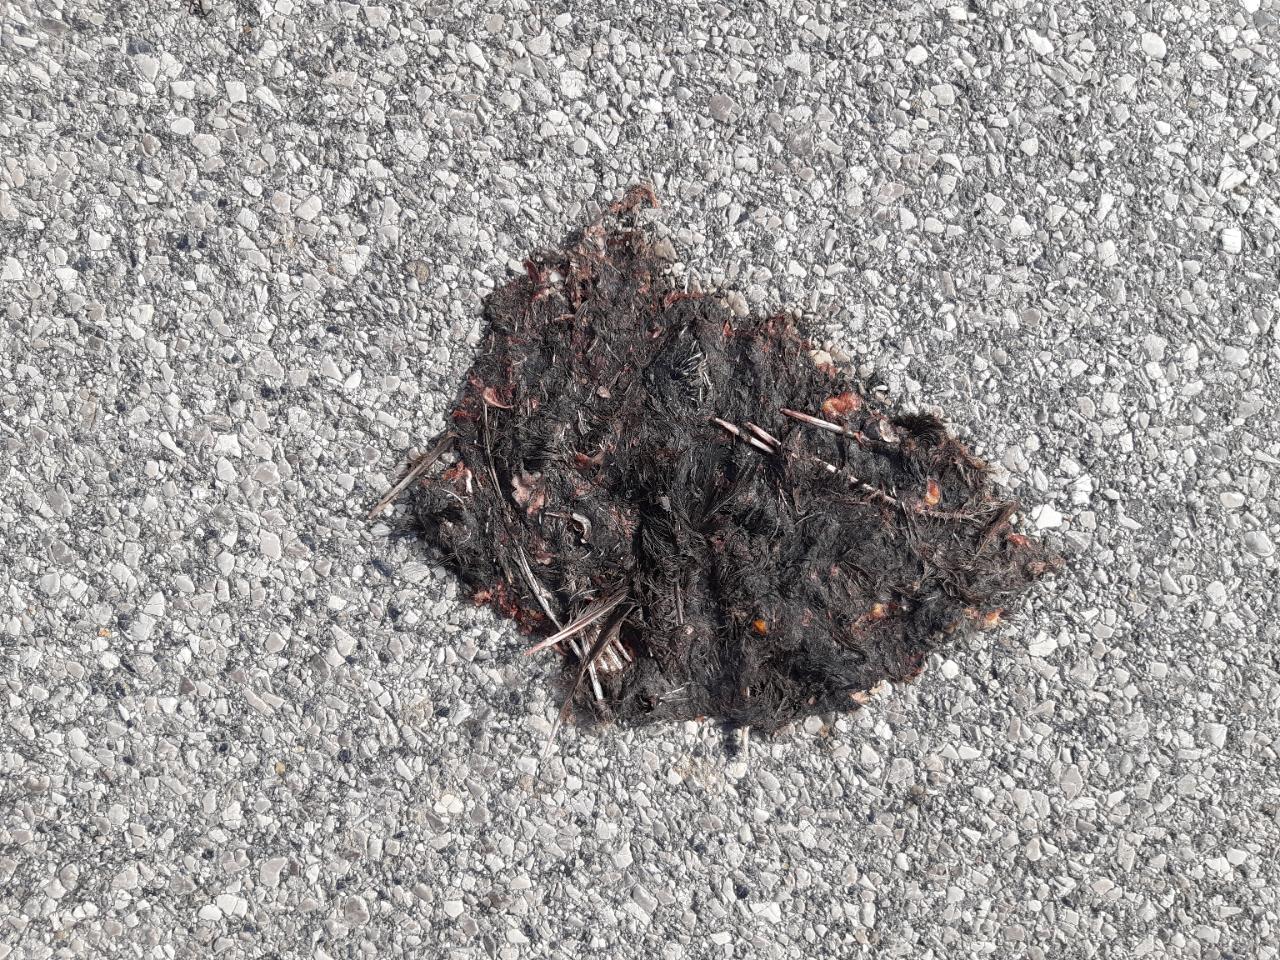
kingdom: Animalia
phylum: Chordata
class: Aves
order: Passeriformes
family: Turdidae
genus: Turdus
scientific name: Turdus merula
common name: Common blackbird
